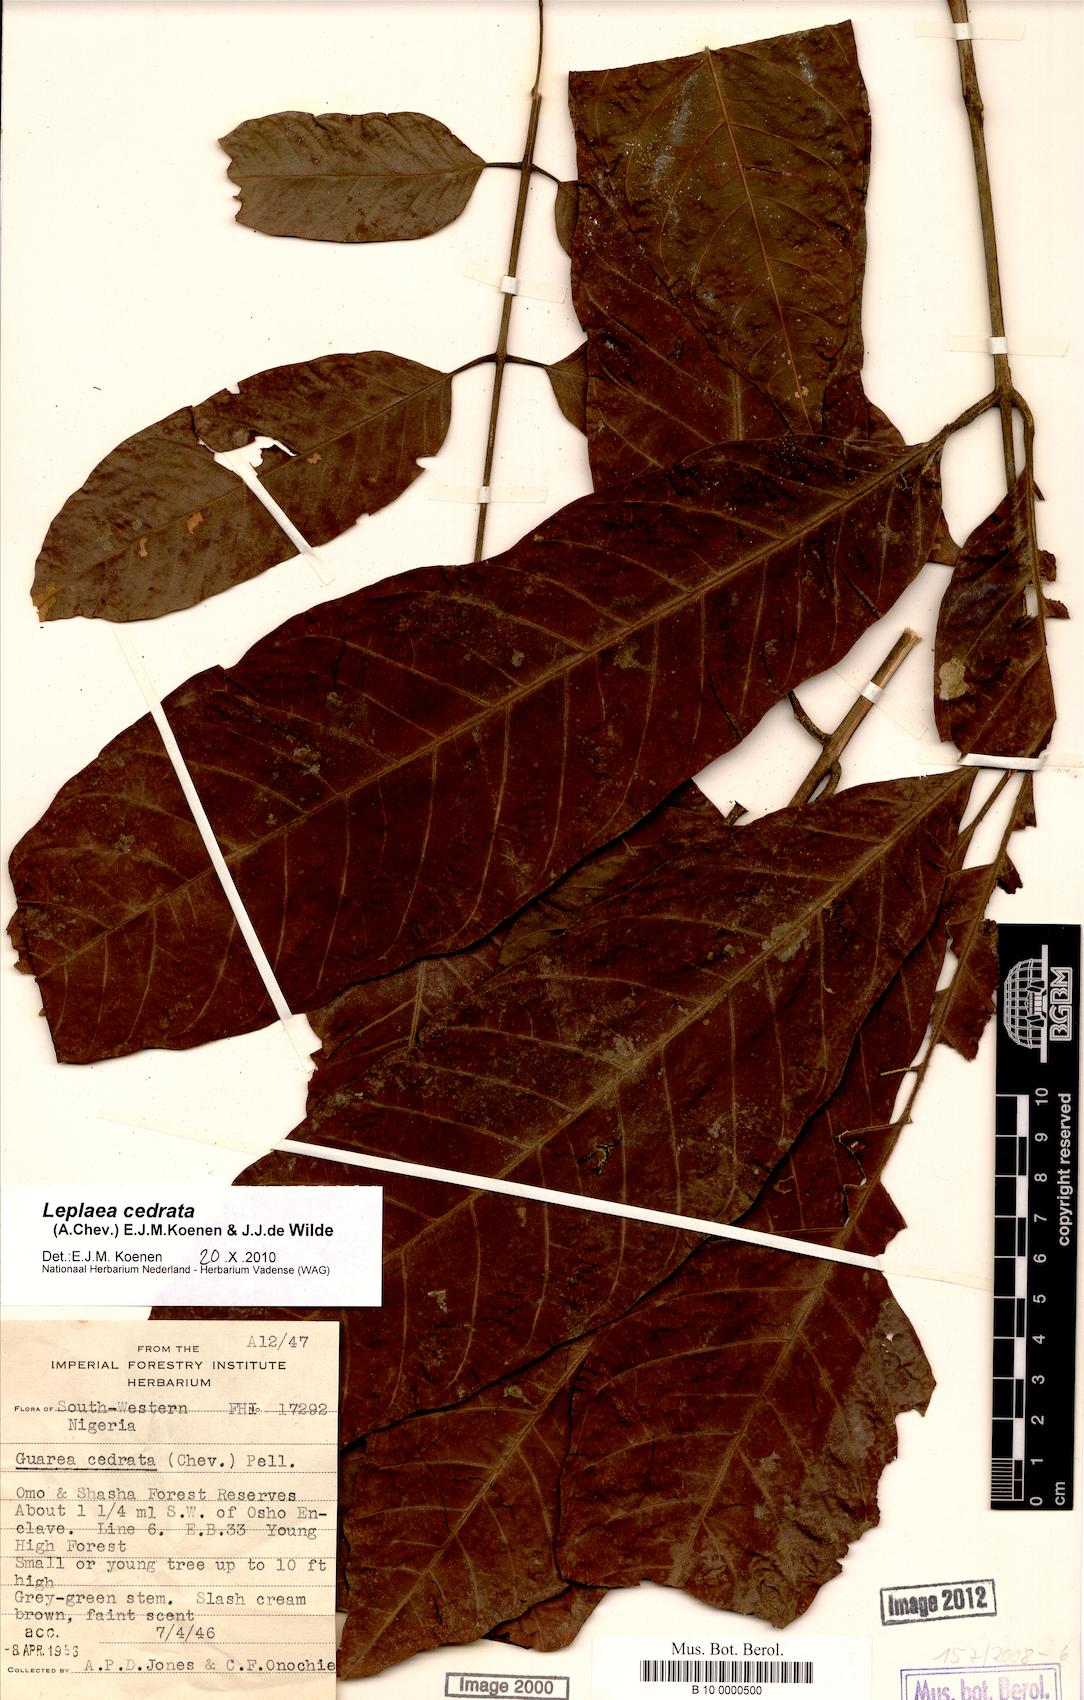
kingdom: Plantae
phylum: Tracheophyta
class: Magnoliopsida
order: Sapindales
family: Meliaceae
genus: Leplaea
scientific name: Leplaea cedrata
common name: Light bossé
